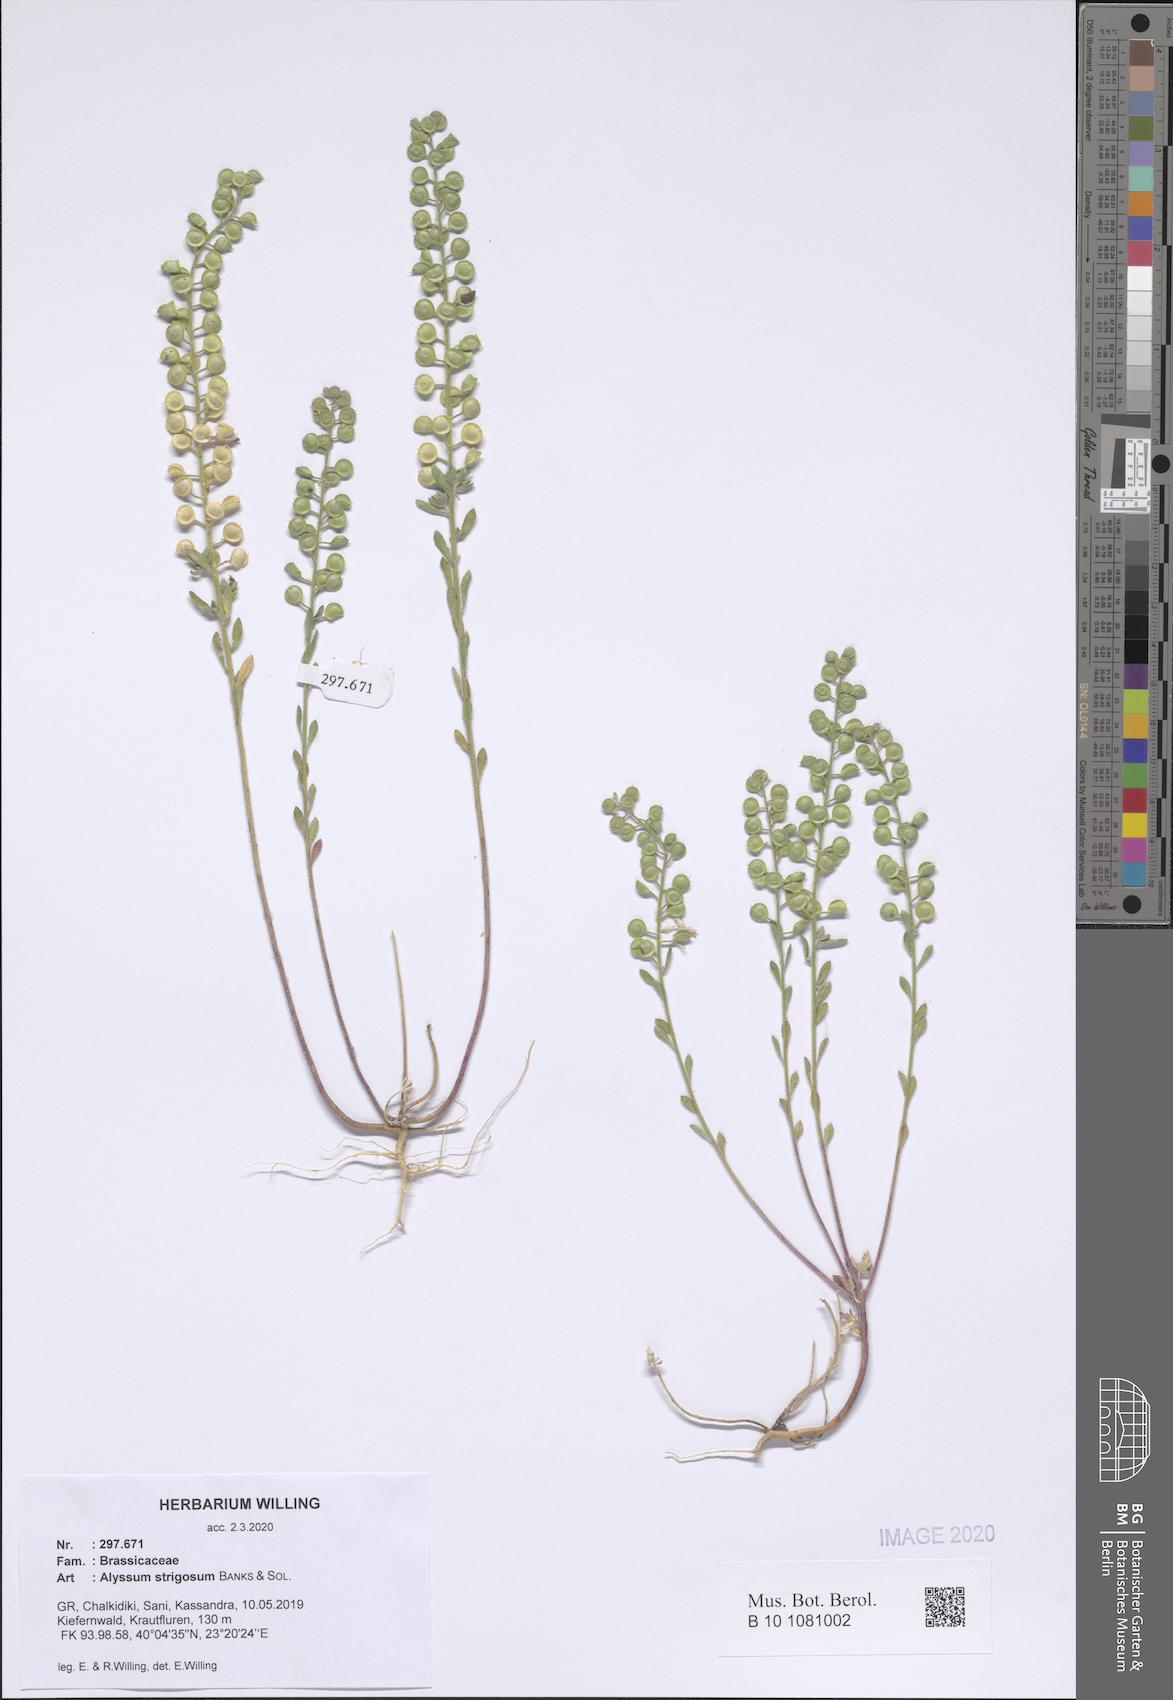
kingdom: Plantae
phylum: Tracheophyta
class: Magnoliopsida
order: Brassicales
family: Brassicaceae
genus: Alyssum
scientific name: Alyssum strigosum
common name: Alyssum
